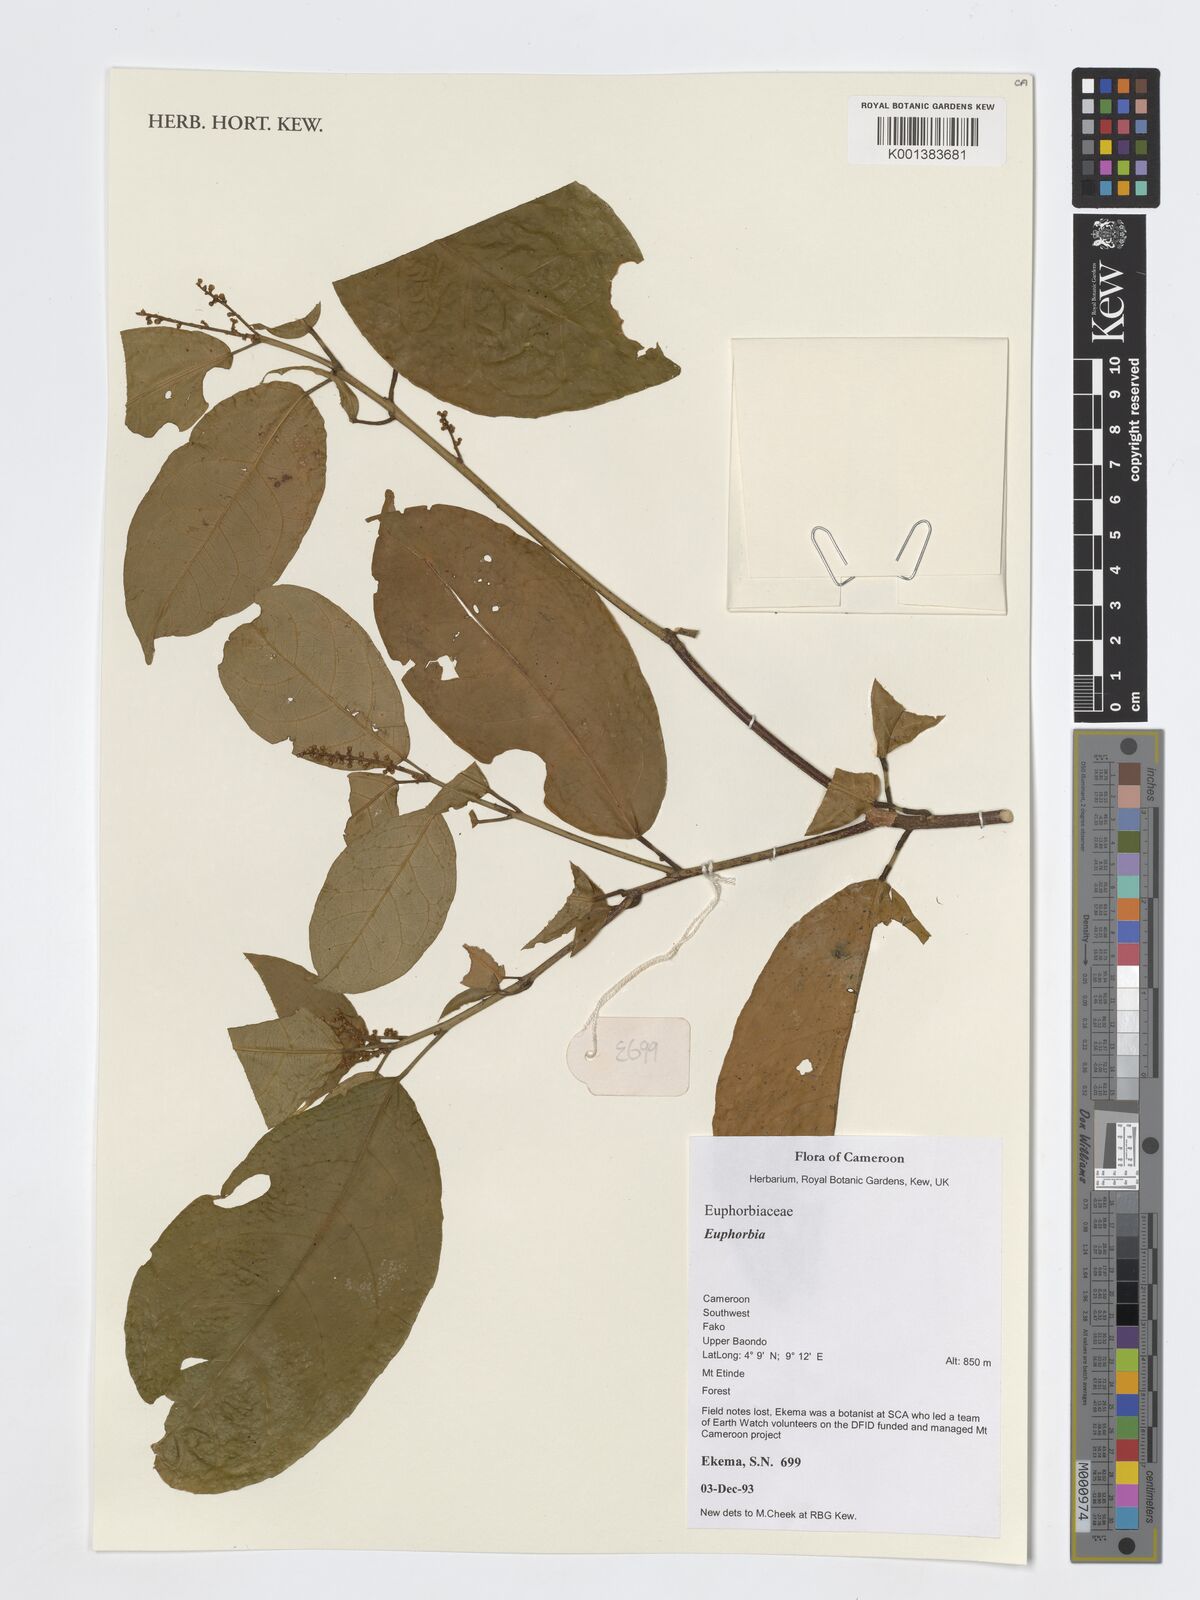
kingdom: Plantae
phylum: Tracheophyta
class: Magnoliopsida
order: Malpighiales
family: Euphorbiaceae
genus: Euphorbia
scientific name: Euphorbia
